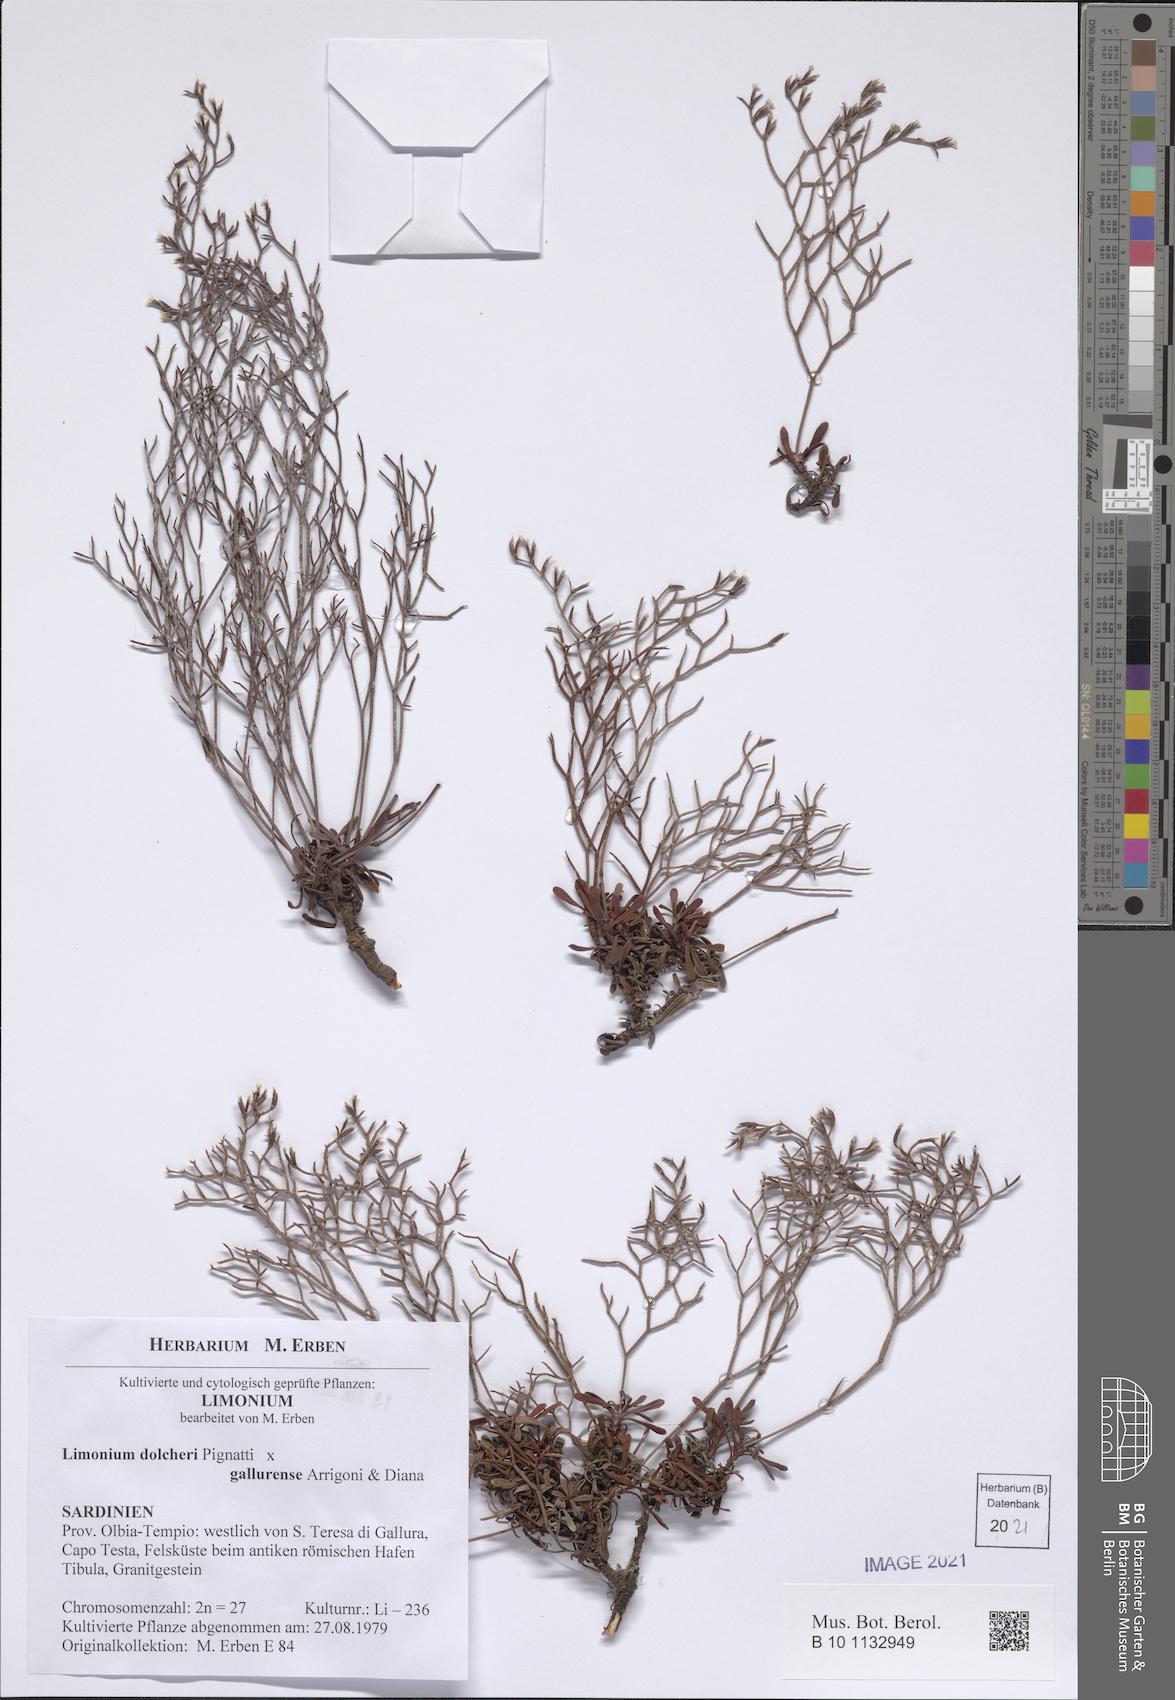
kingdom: Plantae
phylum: Tracheophyta
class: Magnoliopsida
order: Caryophyllales
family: Plumbaginaceae
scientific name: Plumbaginaceae
